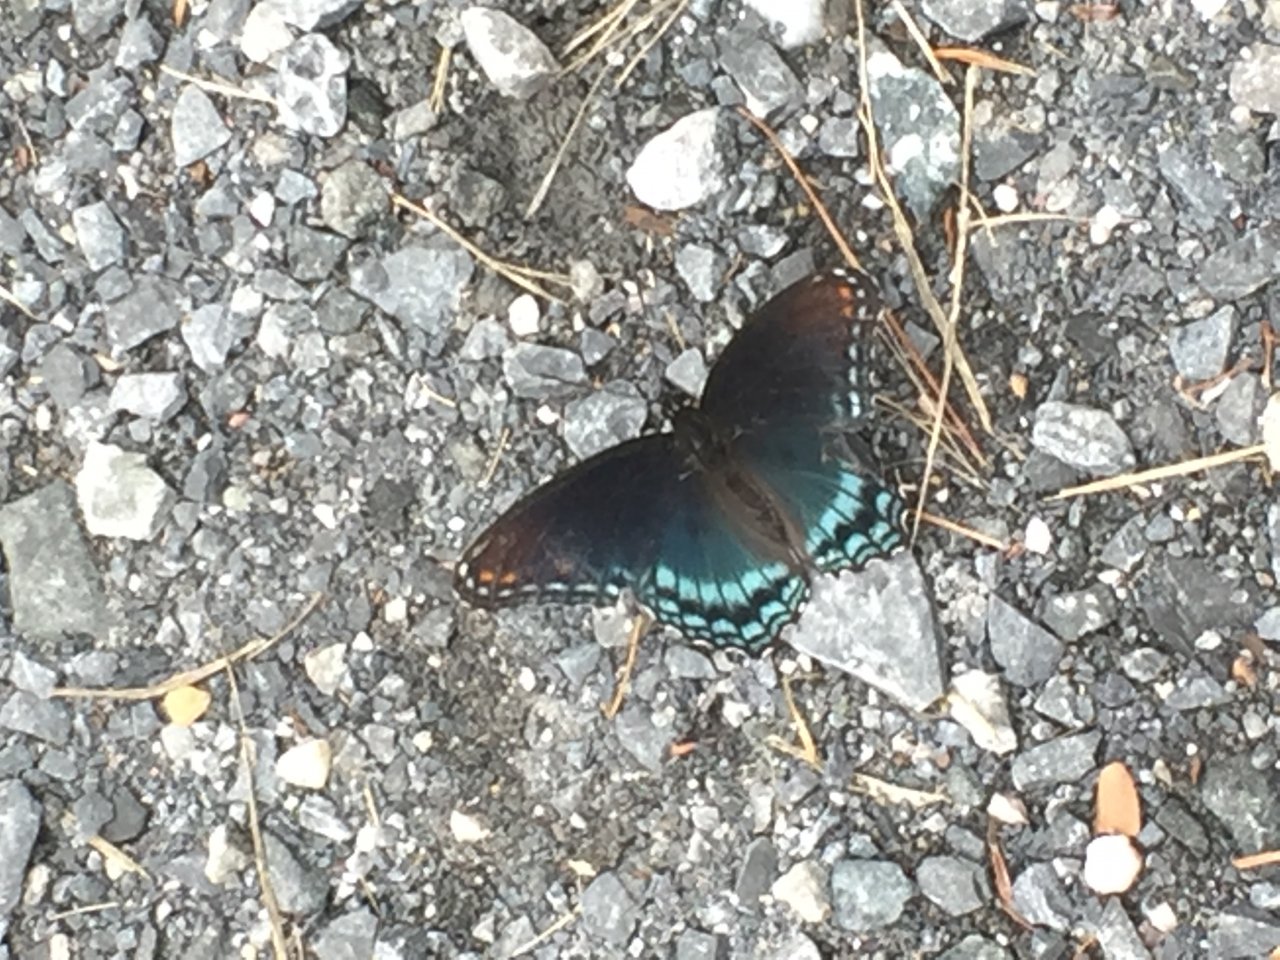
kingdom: Animalia
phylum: Arthropoda
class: Insecta
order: Lepidoptera
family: Nymphalidae
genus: Limenitis
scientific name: Limenitis astyanax
